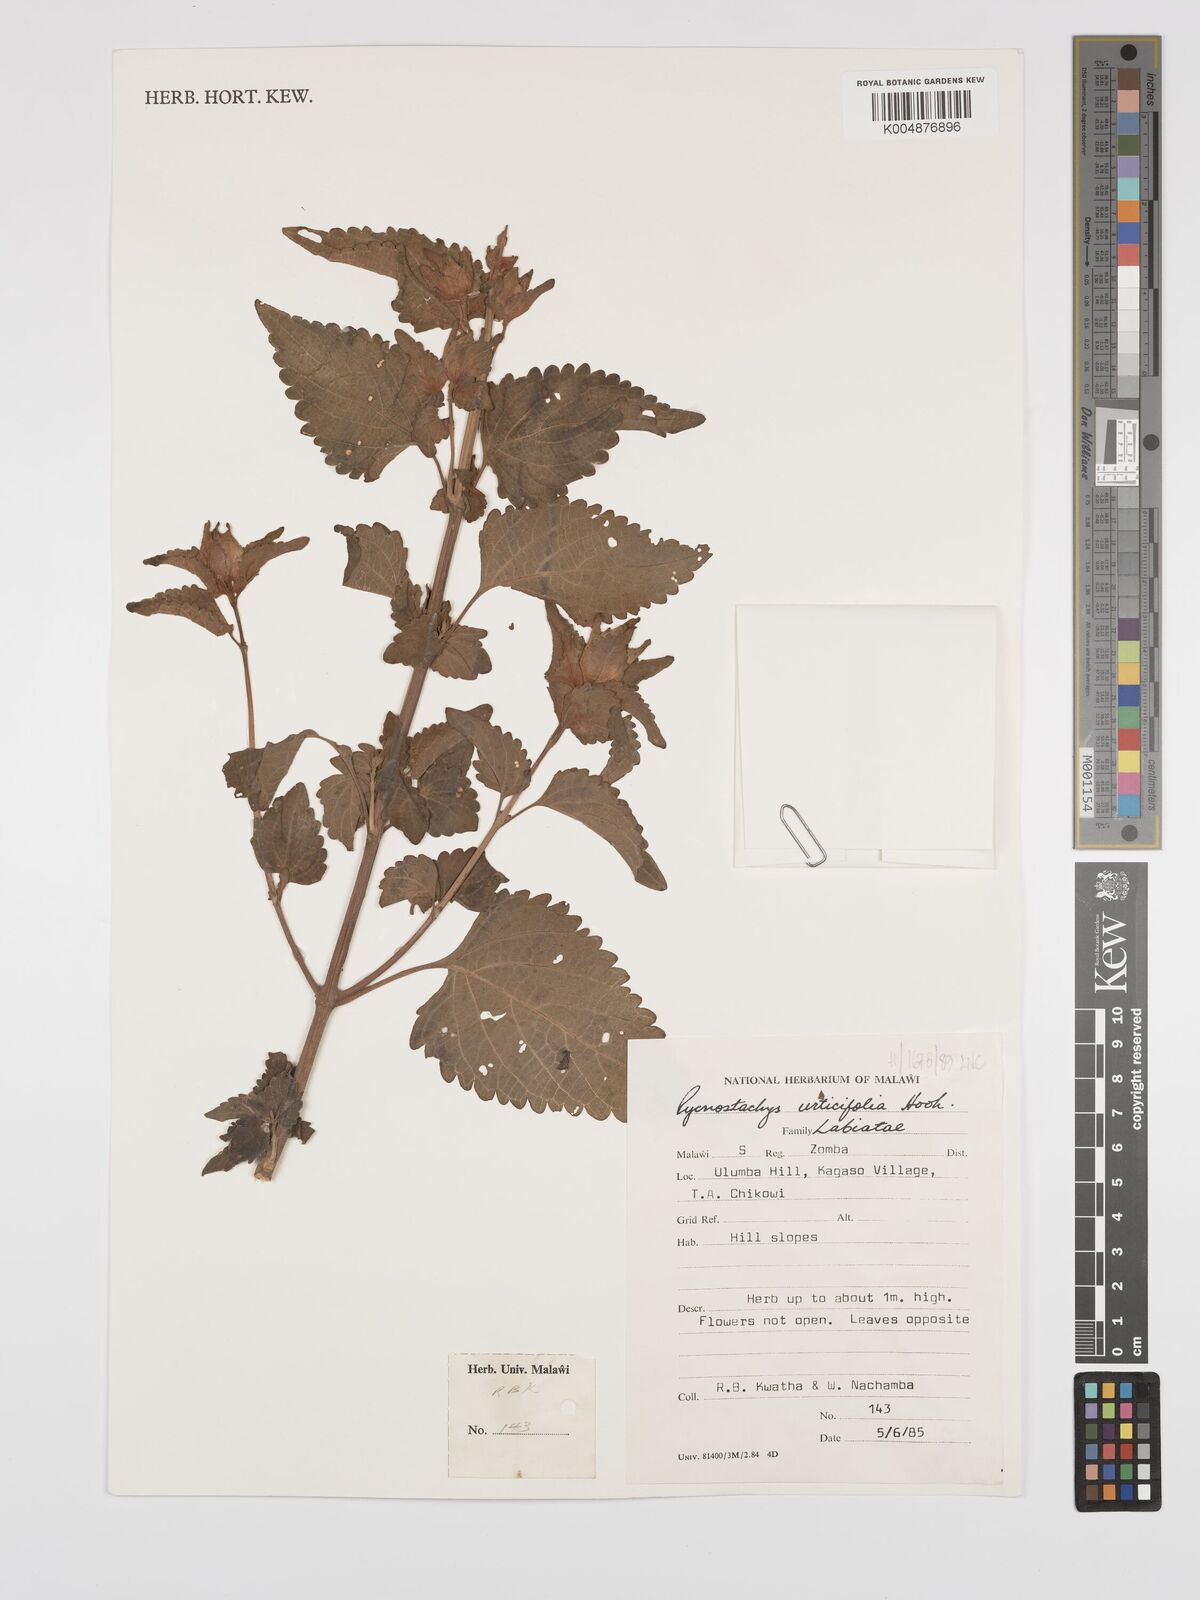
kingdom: Plantae
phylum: Tracheophyta
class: Magnoliopsida
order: Lamiales
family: Lamiaceae
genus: Coleus
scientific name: Coleus livingstonei
